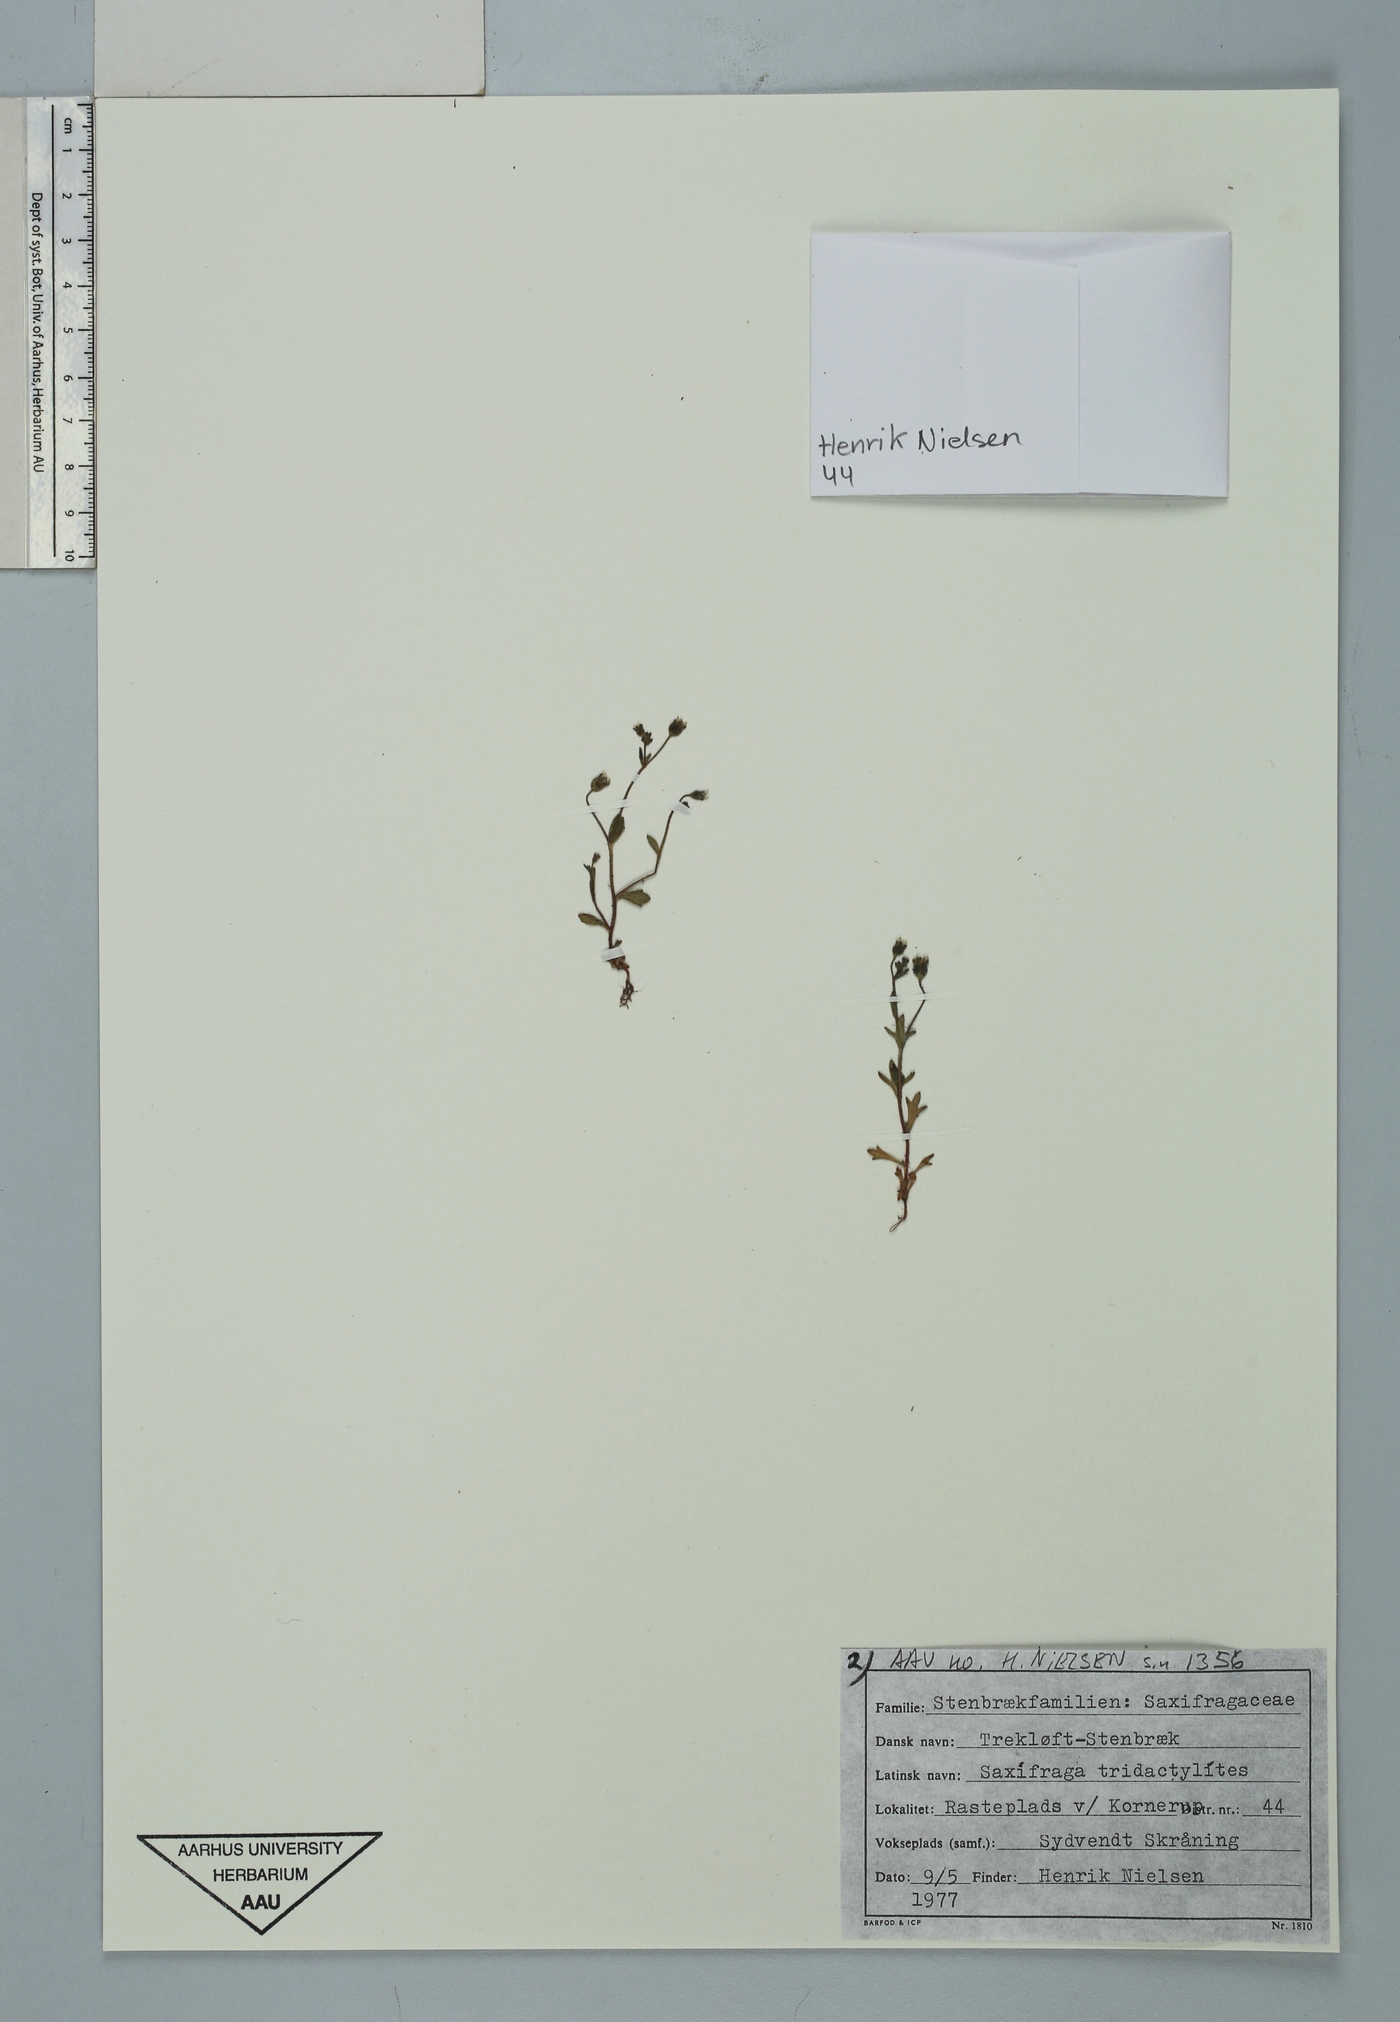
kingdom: Plantae
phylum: Tracheophyta
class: Magnoliopsida
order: Saxifragales
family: Saxifragaceae
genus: Saxifraga
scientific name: Saxifraga tridactylites
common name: Rue-leaved saxifrage
